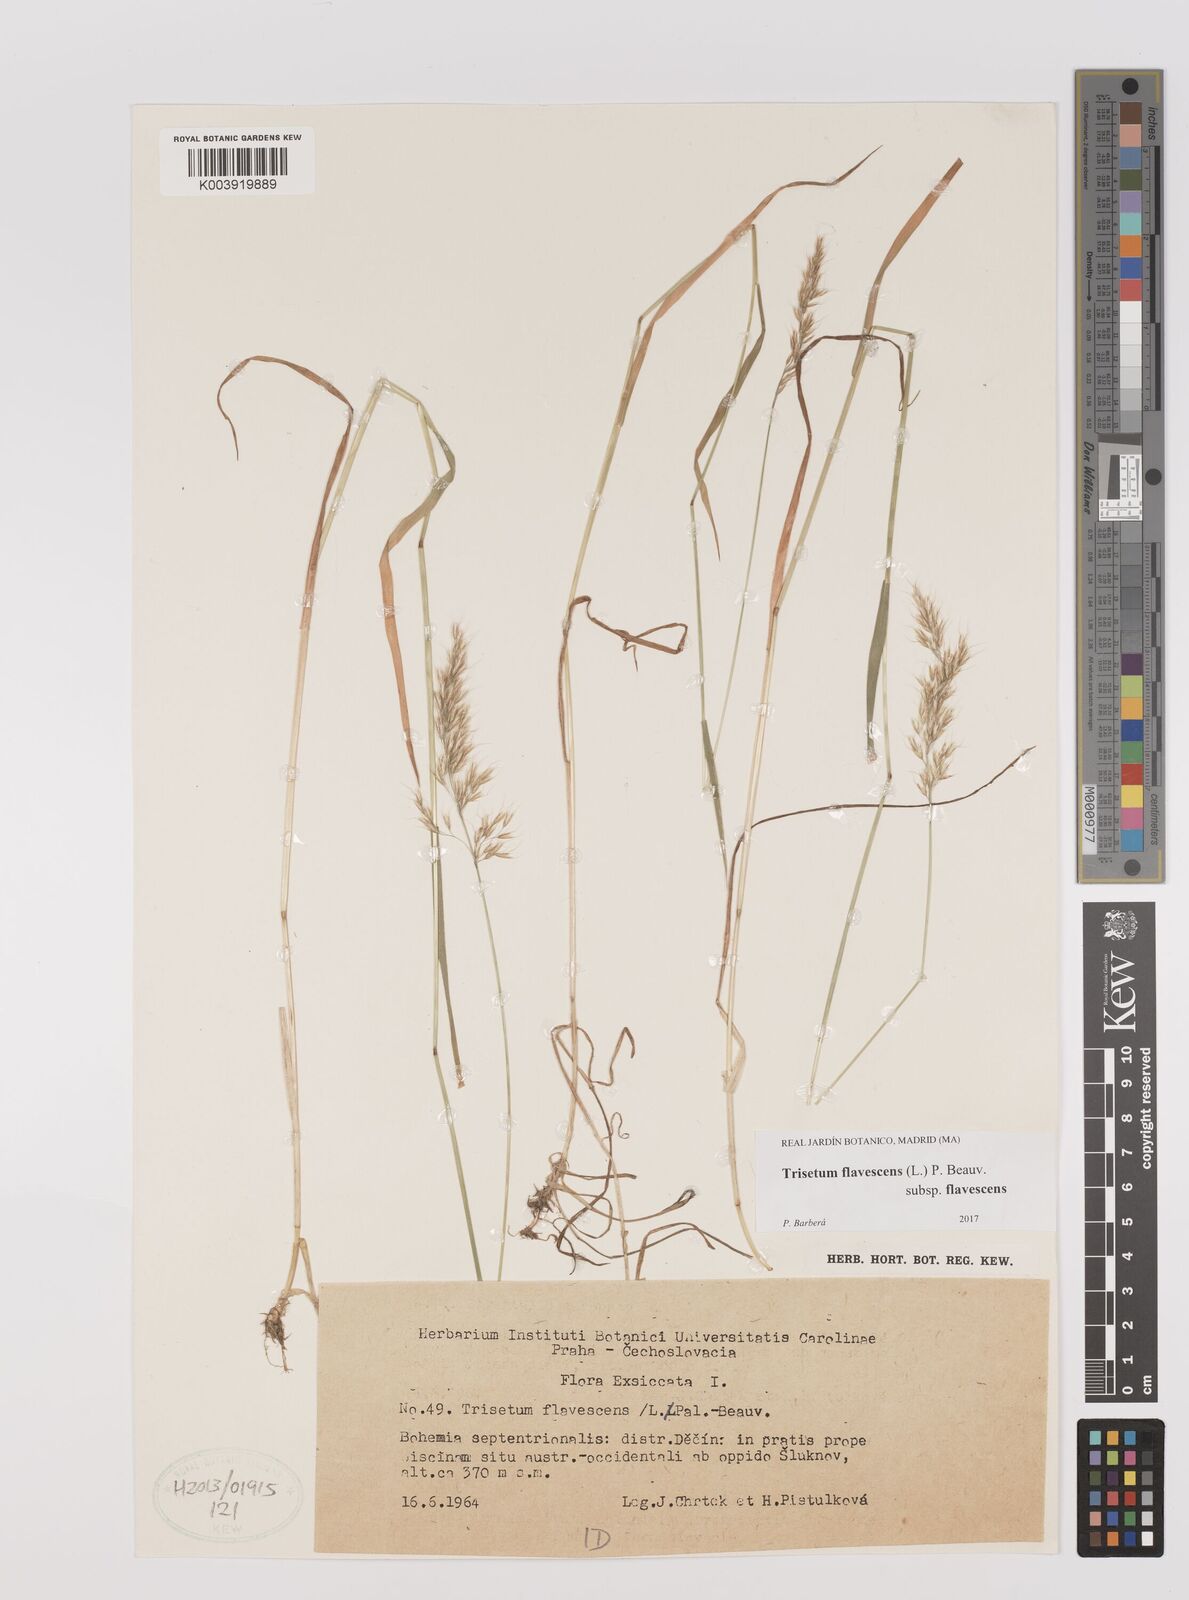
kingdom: Plantae
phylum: Tracheophyta
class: Liliopsida
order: Poales
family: Poaceae
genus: Trisetum
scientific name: Trisetum flavescens
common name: Yellow oat-grass
